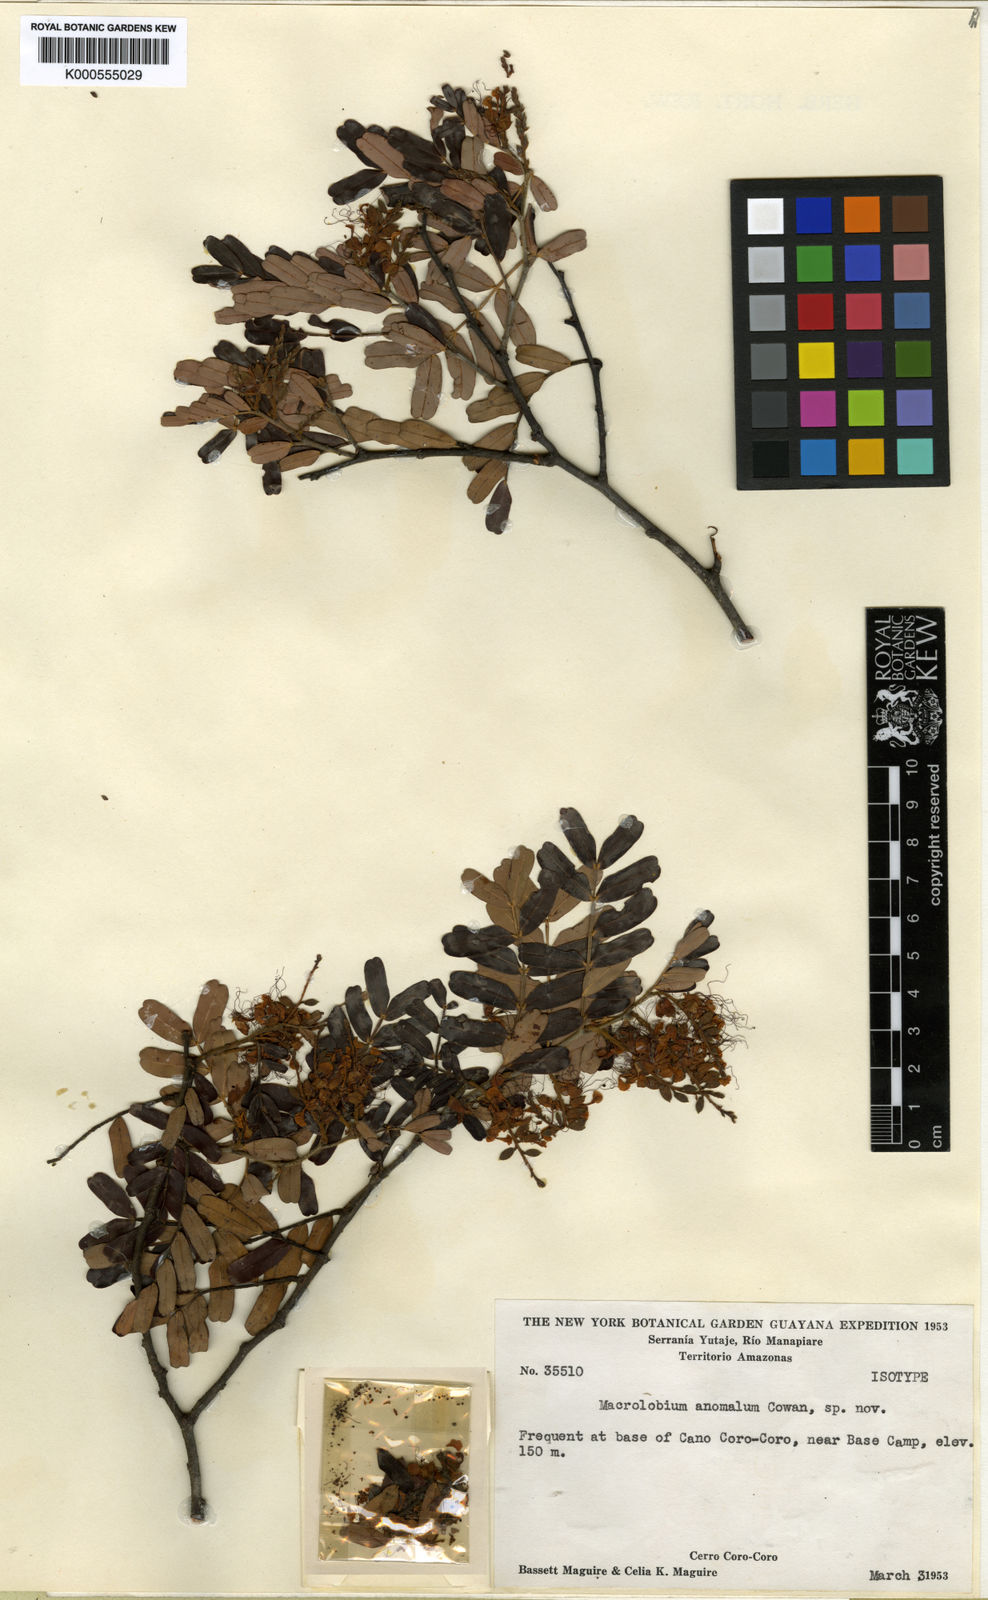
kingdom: Plantae
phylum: Tracheophyta
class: Magnoliopsida
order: Fabales
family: Fabaceae
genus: Macrolobium
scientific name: Macrolobium anomalum
